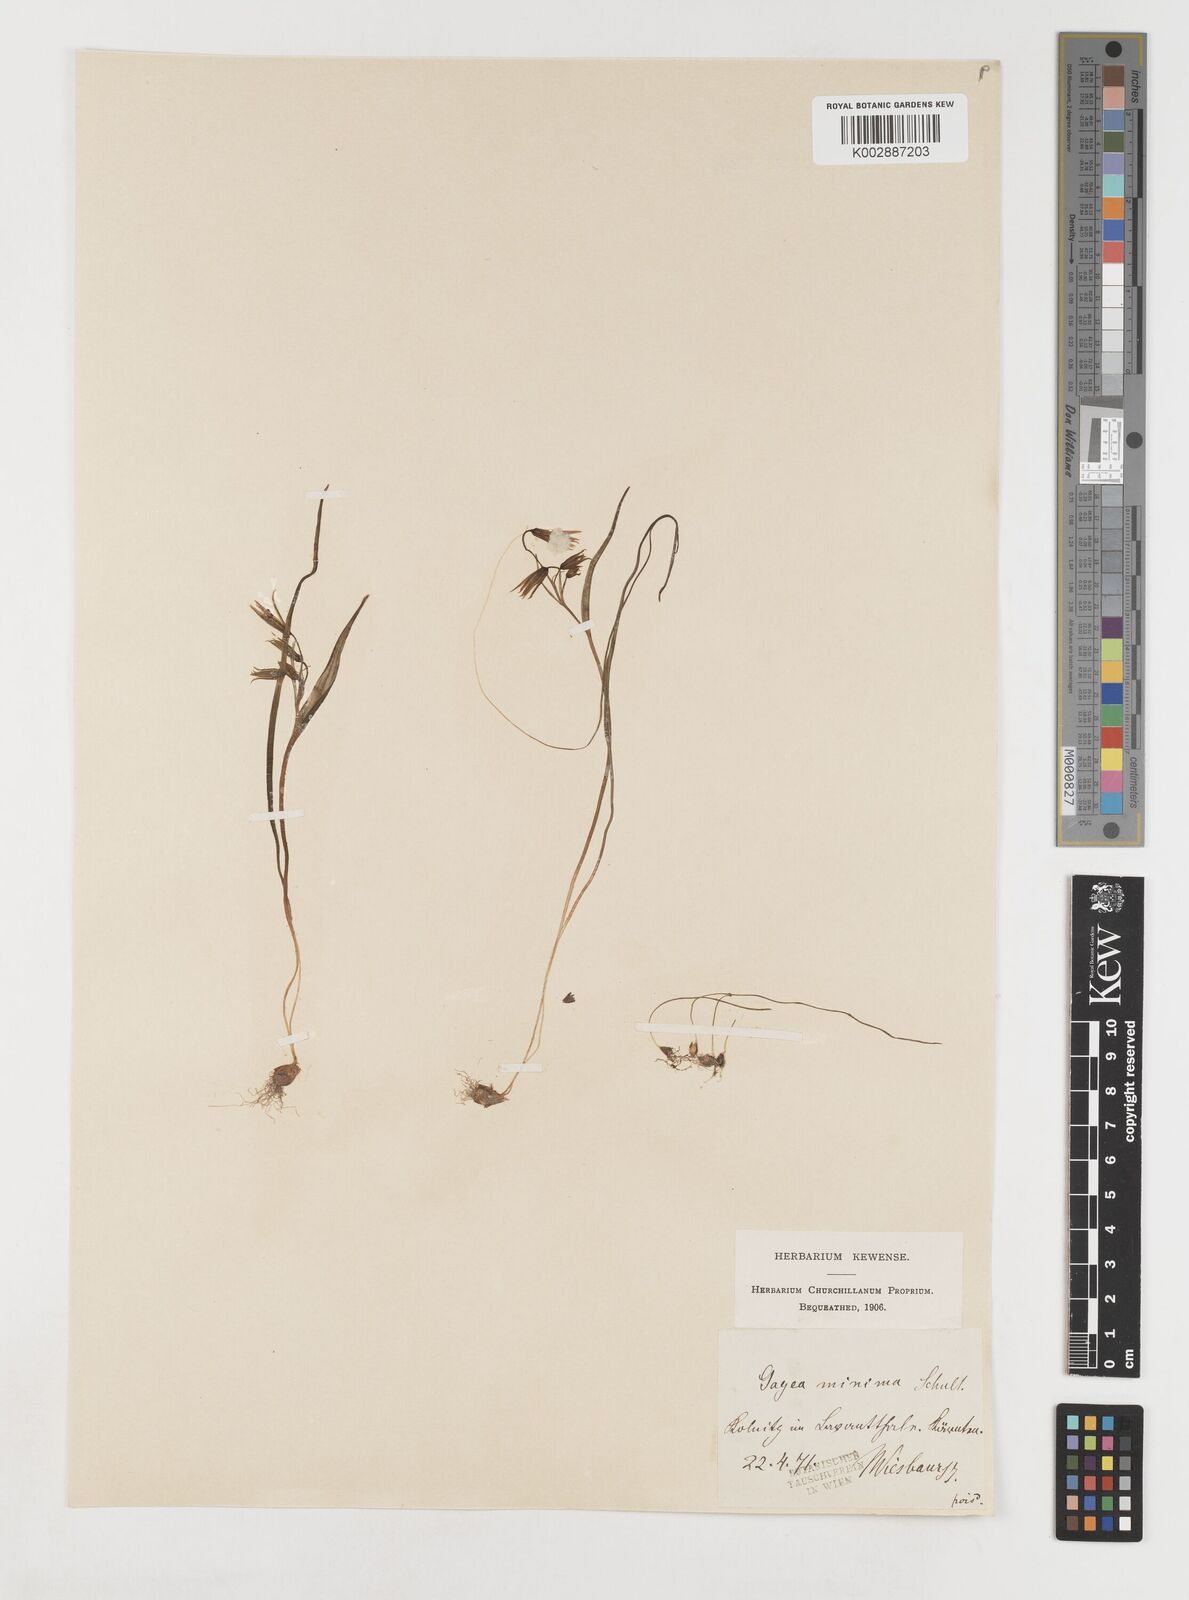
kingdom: Plantae
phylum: Tracheophyta
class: Liliopsida
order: Liliales
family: Liliaceae
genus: Gagea
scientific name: Gagea minima
